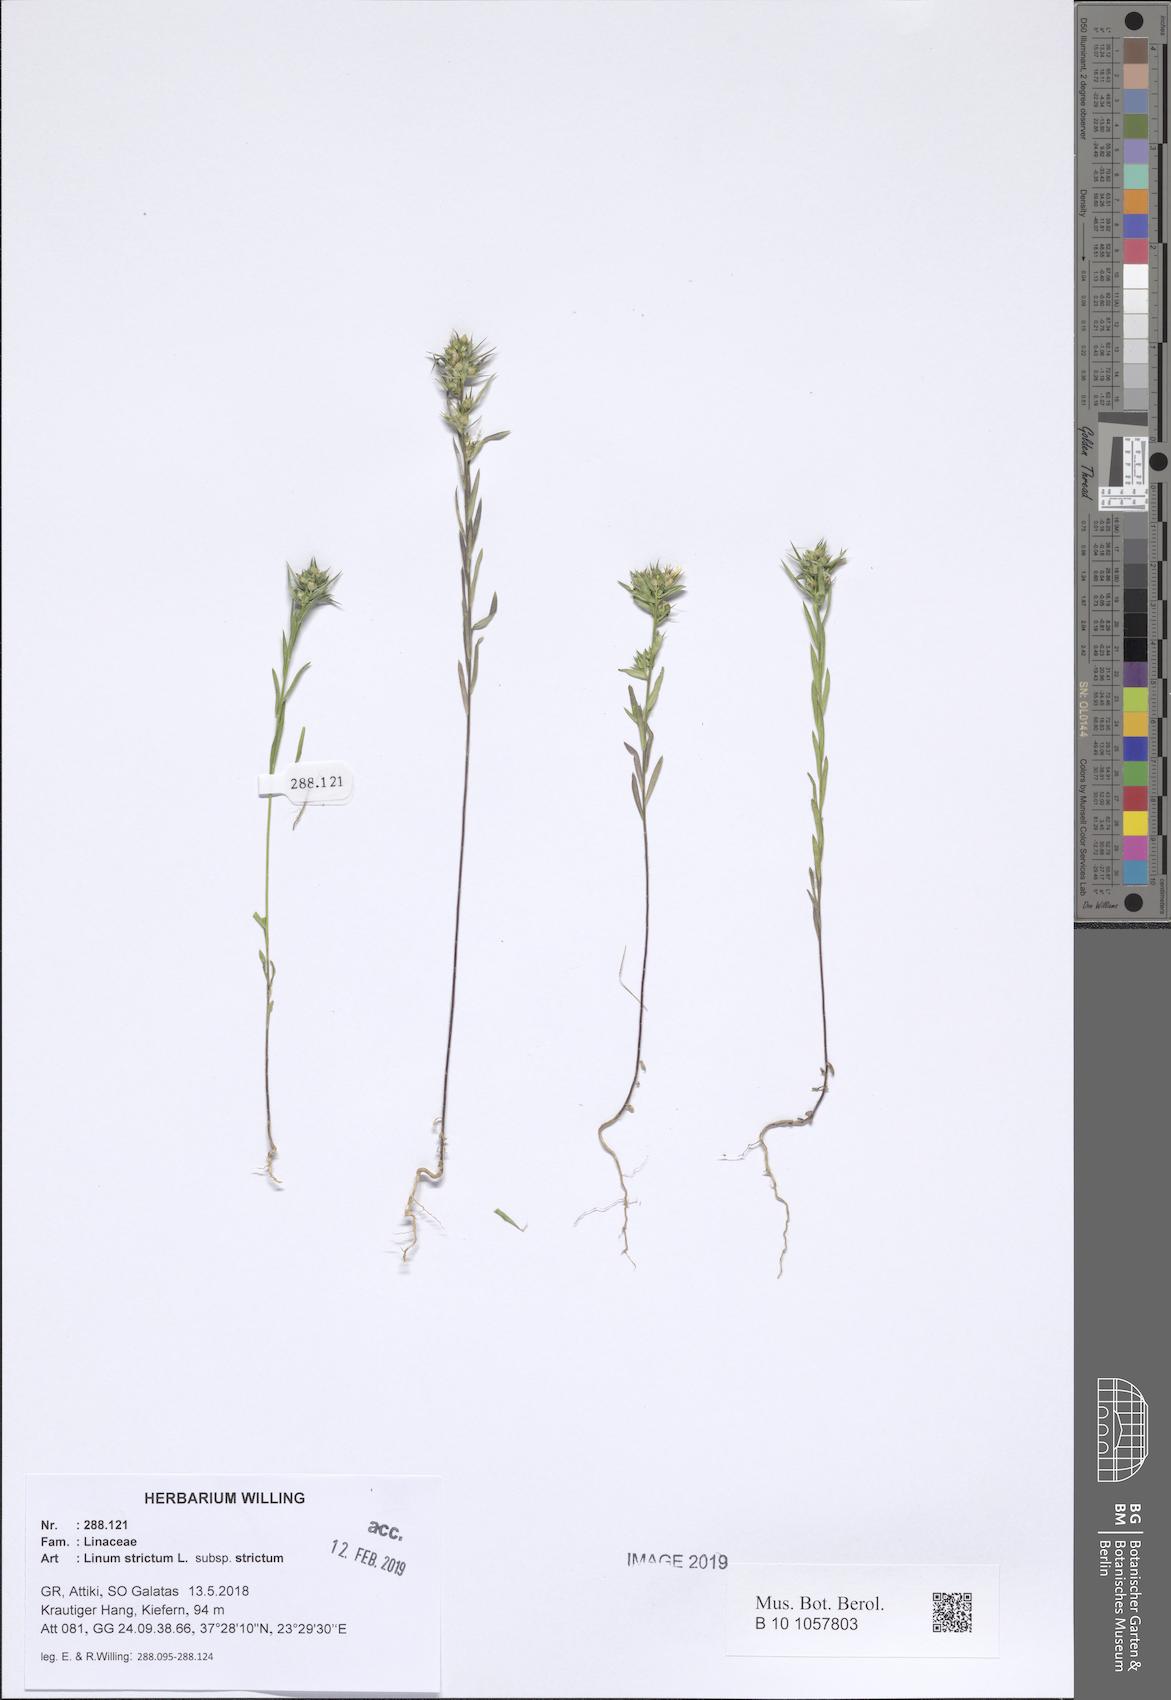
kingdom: Plantae
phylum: Tracheophyta
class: Magnoliopsida
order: Malpighiales
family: Linaceae
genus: Linum
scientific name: Linum strictum
